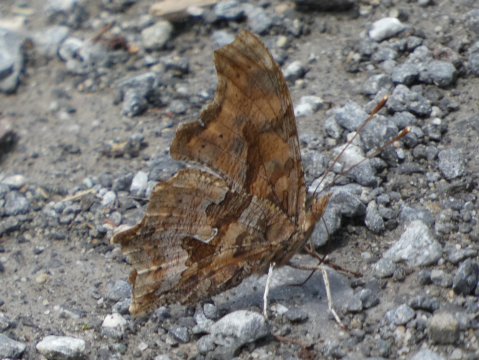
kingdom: Animalia
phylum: Arthropoda
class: Insecta
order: Lepidoptera
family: Nymphalidae
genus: Polygonia
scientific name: Polygonia comma
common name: Eastern Comma
